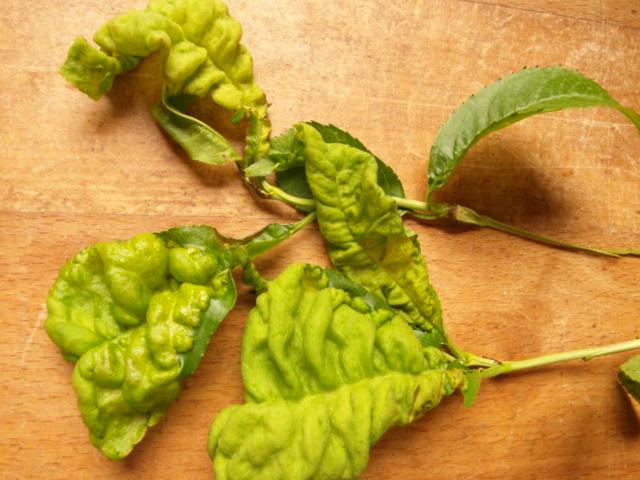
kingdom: Fungi
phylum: Ascomycota
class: Taphrinomycetes
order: Taphrinales
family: Taphrinaceae
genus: Taphrina
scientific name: Taphrina deformans
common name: Peach leaf curl
